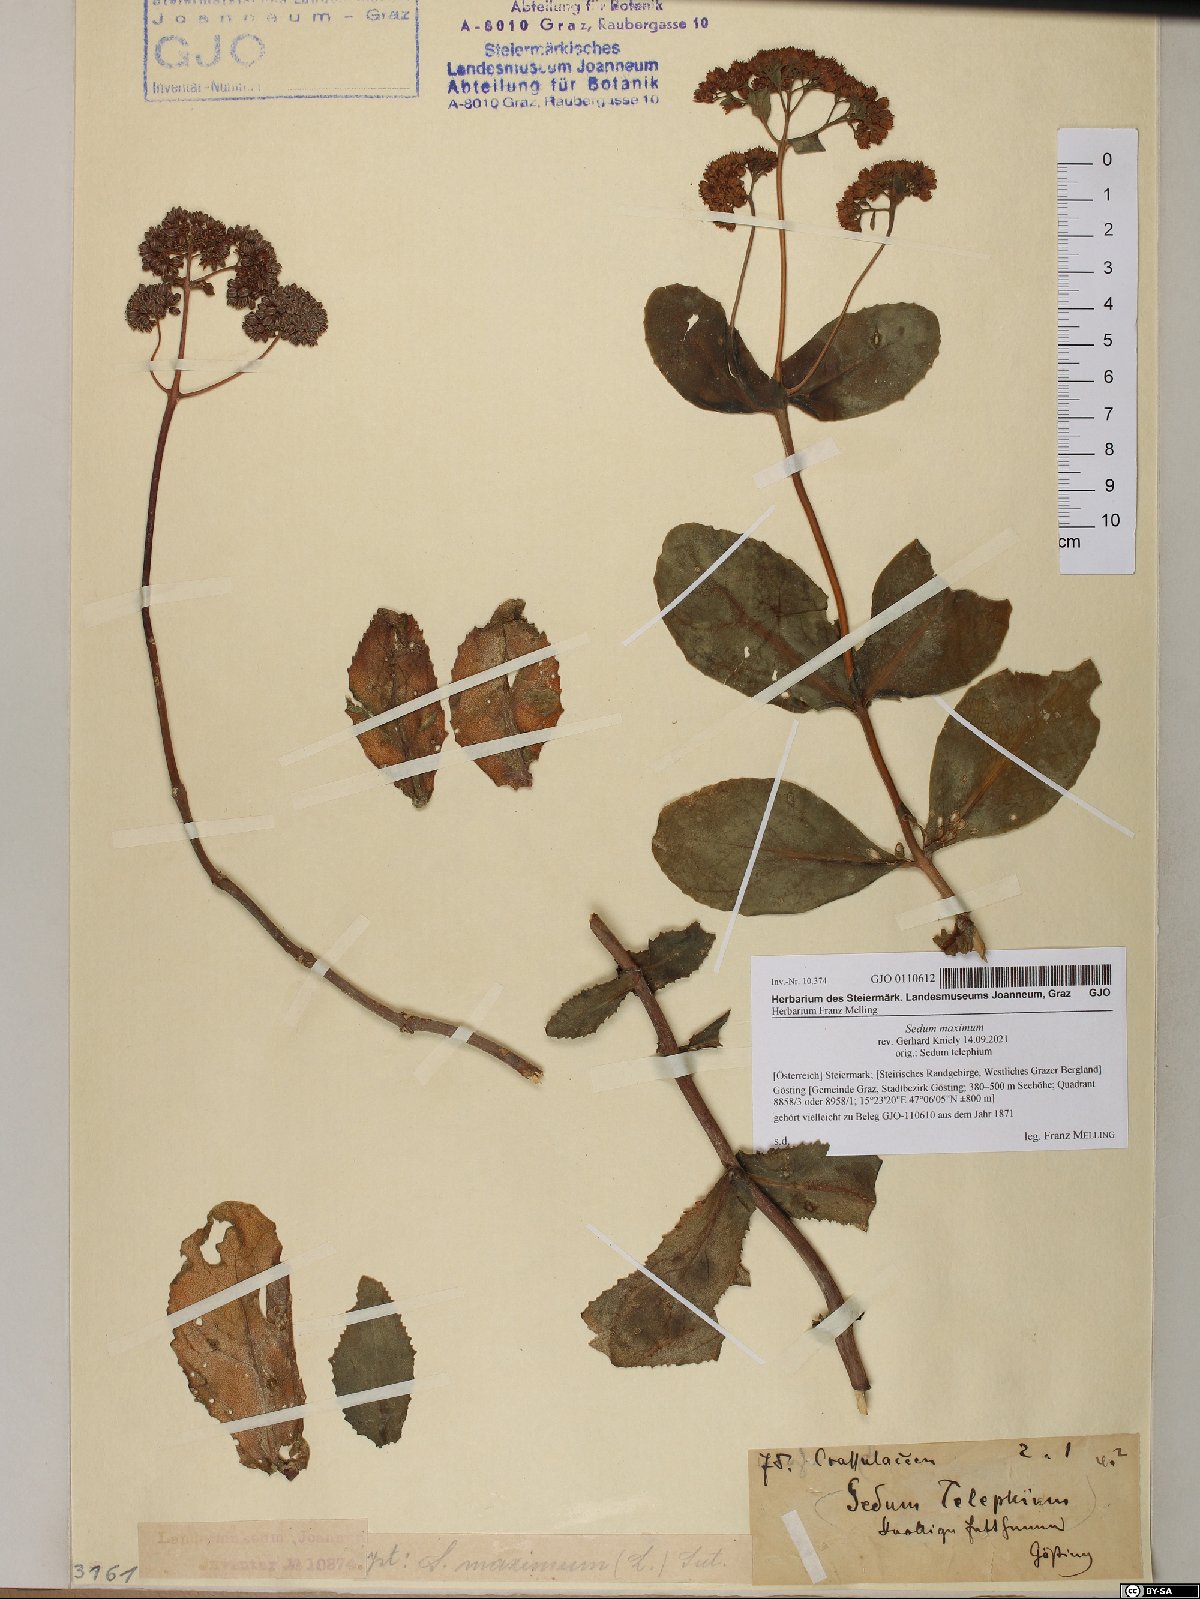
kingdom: Plantae
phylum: Tracheophyta
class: Magnoliopsida
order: Saxifragales
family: Crassulaceae
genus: Hylotelephium
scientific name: Hylotelephium maximum
